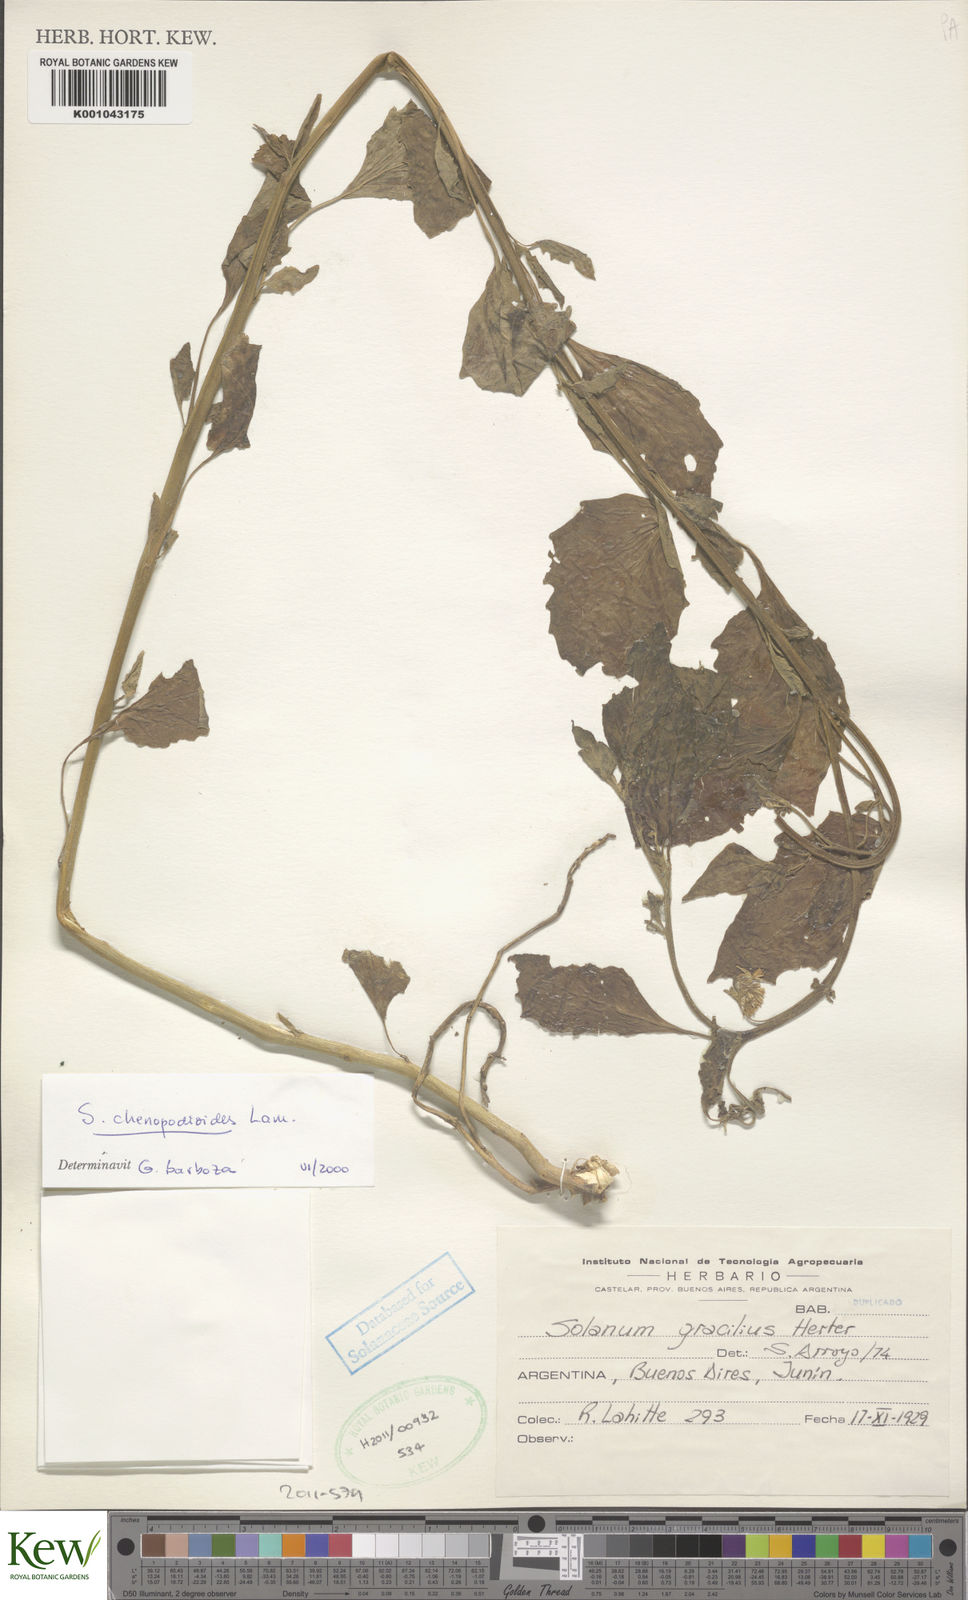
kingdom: Plantae
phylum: Tracheophyta
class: Magnoliopsida
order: Solanales
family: Solanaceae
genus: Solanum
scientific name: Solanum chenopodioides
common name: Tall nightshade
